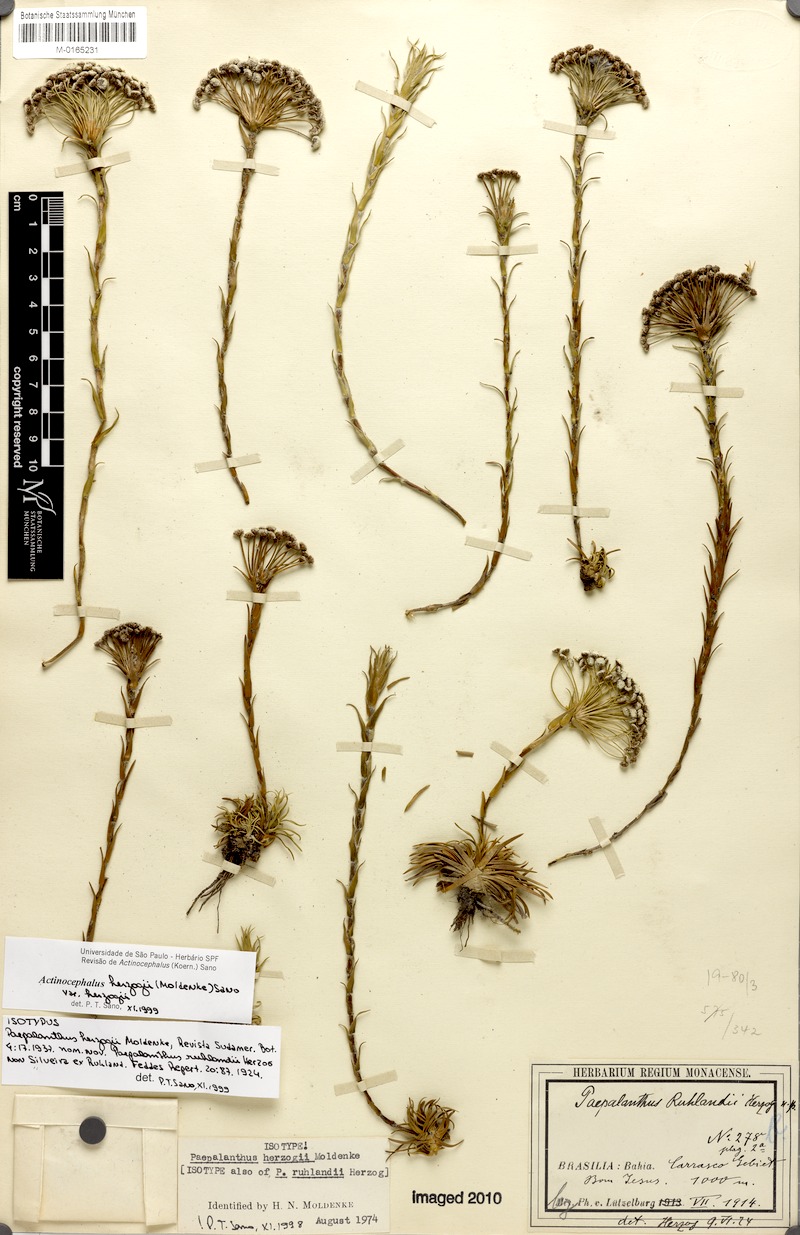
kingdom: Plantae
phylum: Tracheophyta
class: Liliopsida
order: Poales
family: Eriocaulaceae
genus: Paepalanthus
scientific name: Paepalanthus herzogii
